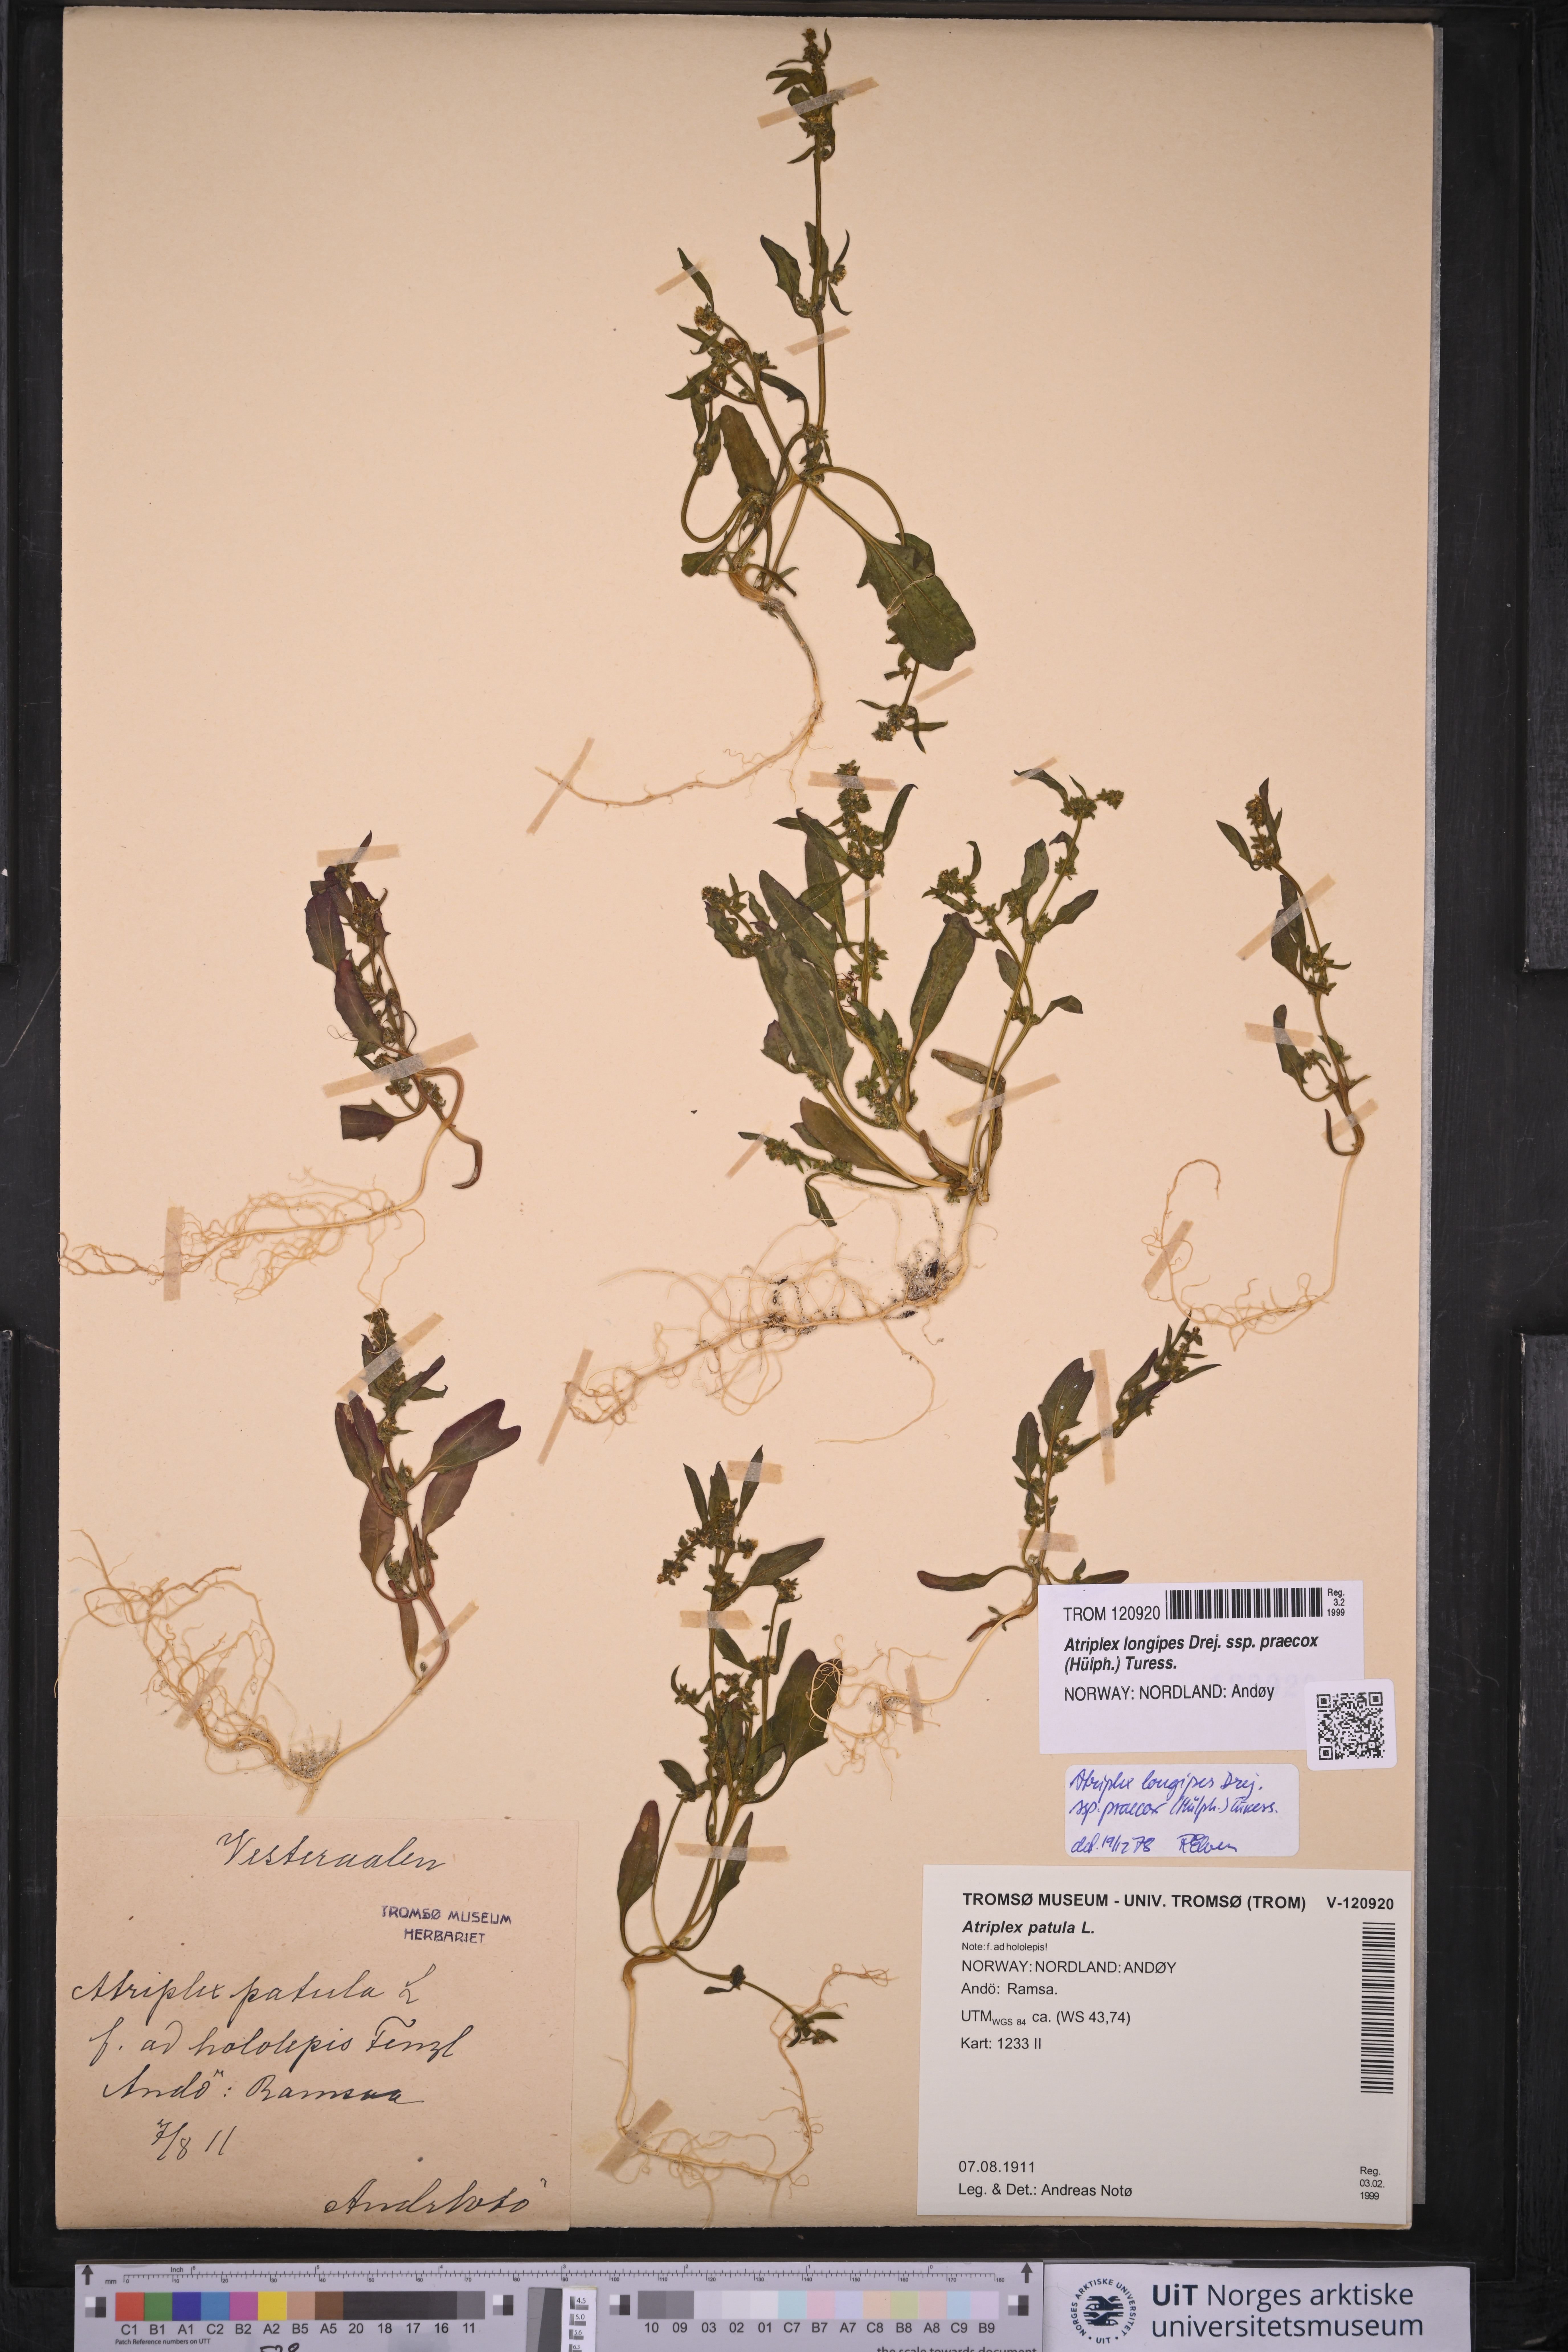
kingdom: Plantae
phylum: Tracheophyta
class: Magnoliopsida
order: Caryophyllales
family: Amaranthaceae
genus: Atriplex
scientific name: Atriplex praecox
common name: Early orache
